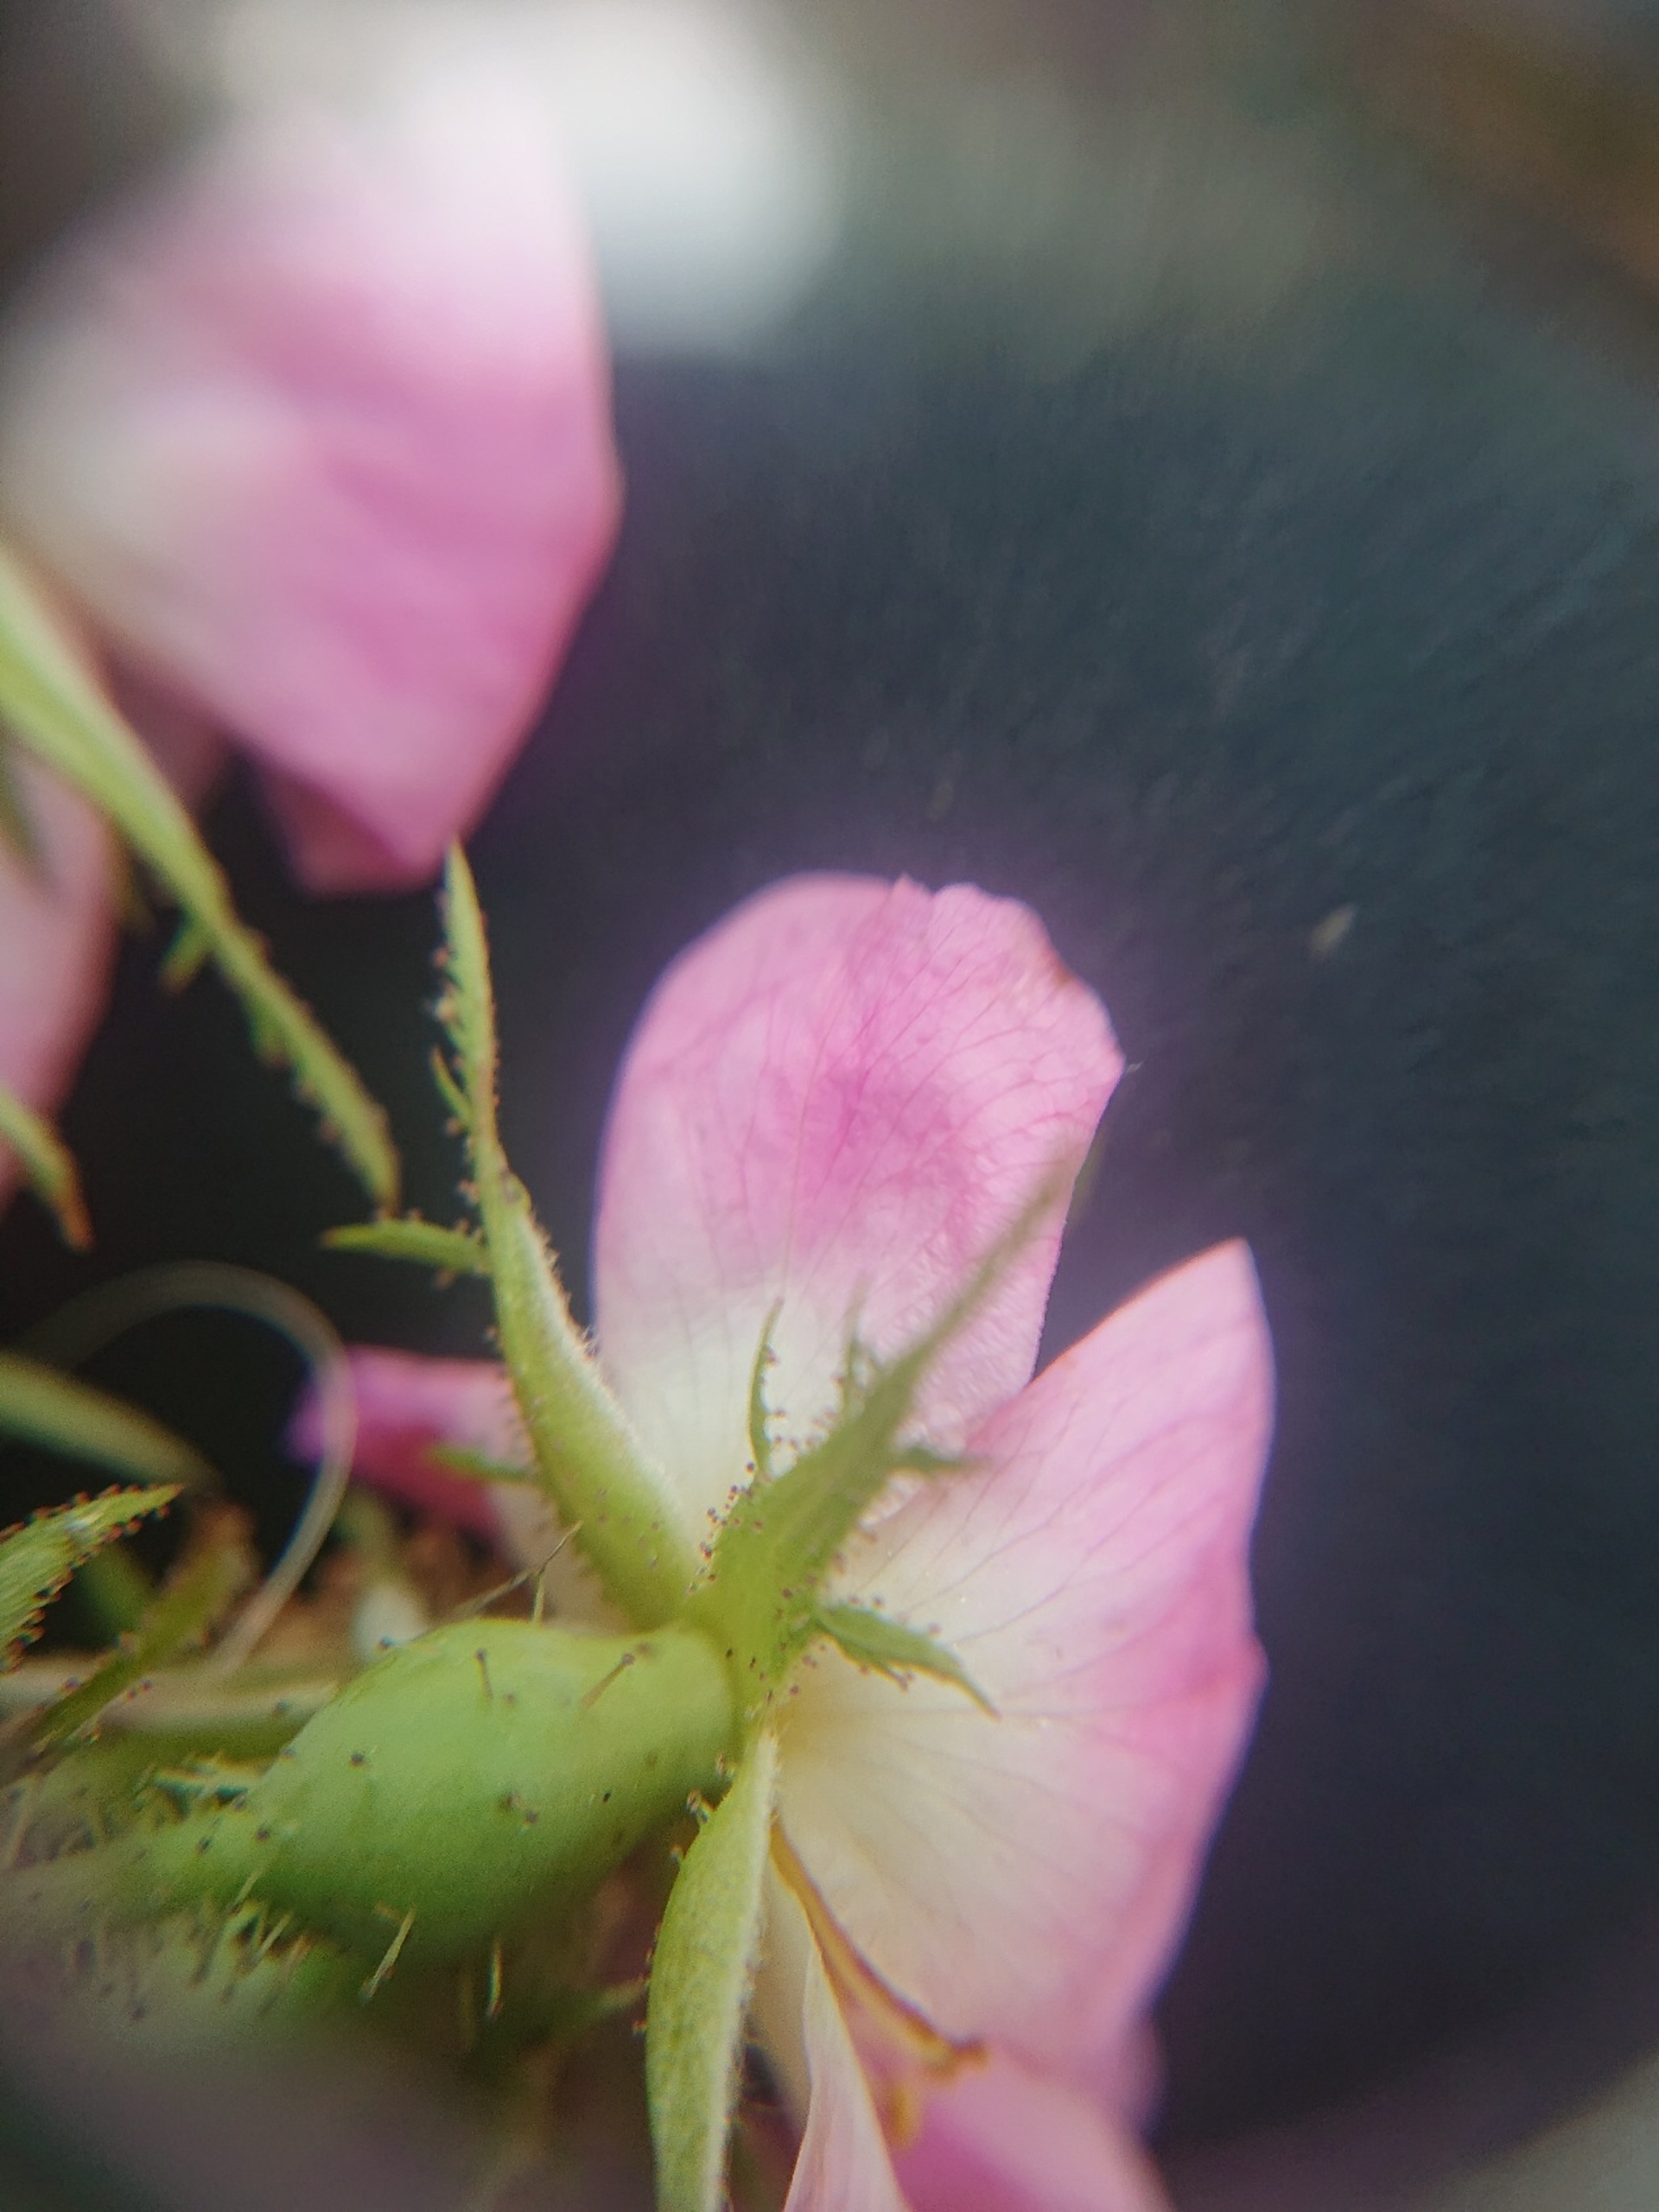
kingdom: Plantae
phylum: Tracheophyta
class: Magnoliopsida
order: Rosales
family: Rosaceae
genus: Rosa
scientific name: Rosa rubiginosa
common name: Æble-rose
